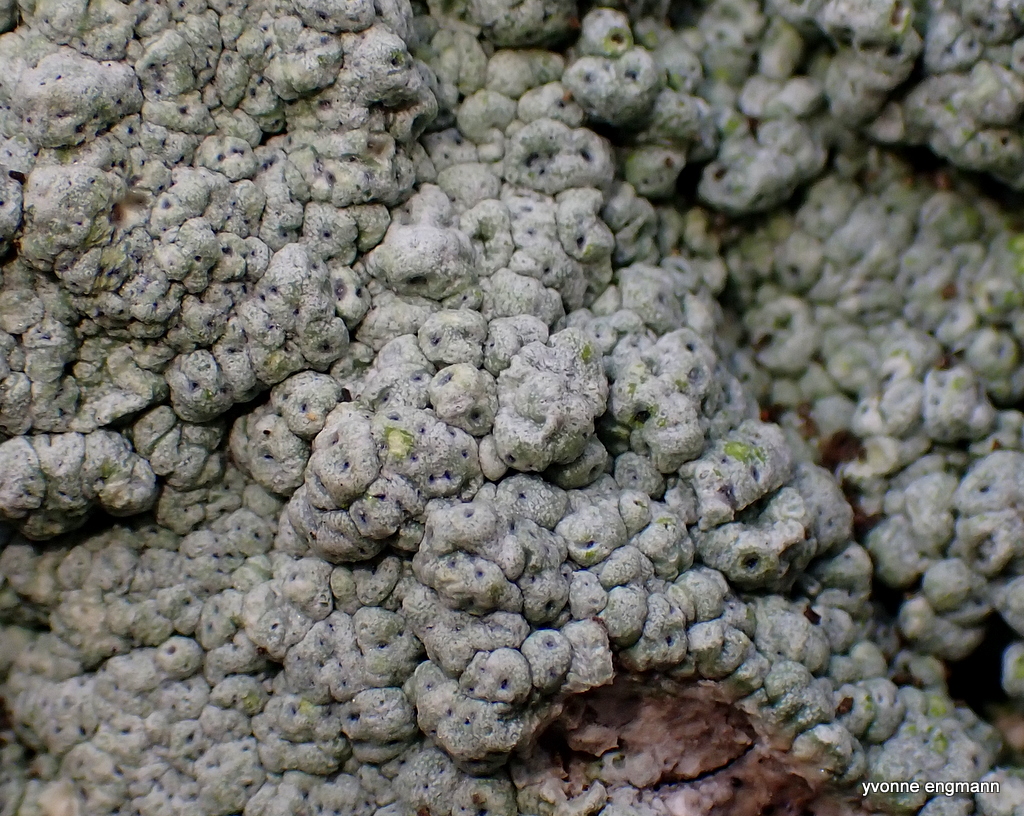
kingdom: Fungi
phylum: Ascomycota
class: Lecanoromycetes
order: Pertusariales
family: Pertusariaceae
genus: Pertusaria
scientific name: Pertusaria pertusa
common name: almindelig prikvortelav
